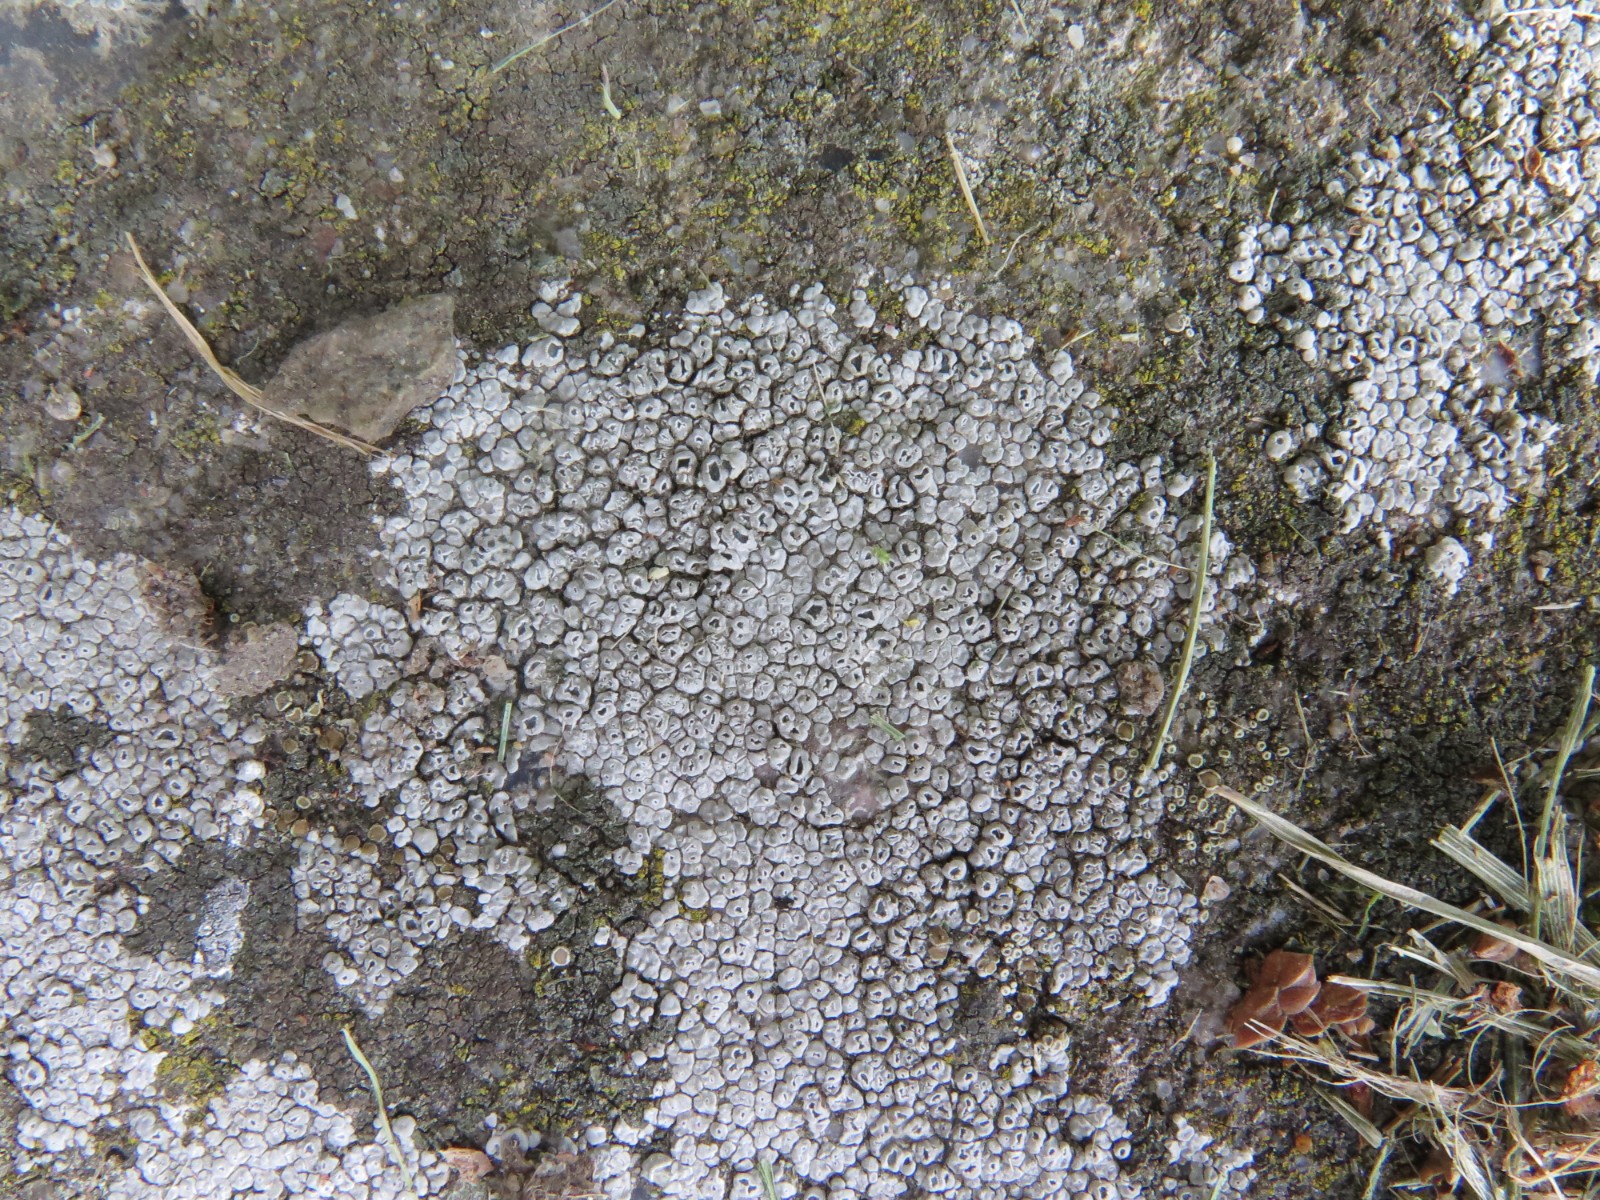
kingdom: Fungi
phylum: Ascomycota
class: Lecanoromycetes
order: Pertusariales
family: Megasporaceae
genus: Circinaria
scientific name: Circinaria contorta
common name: indviklet hulskivelav
